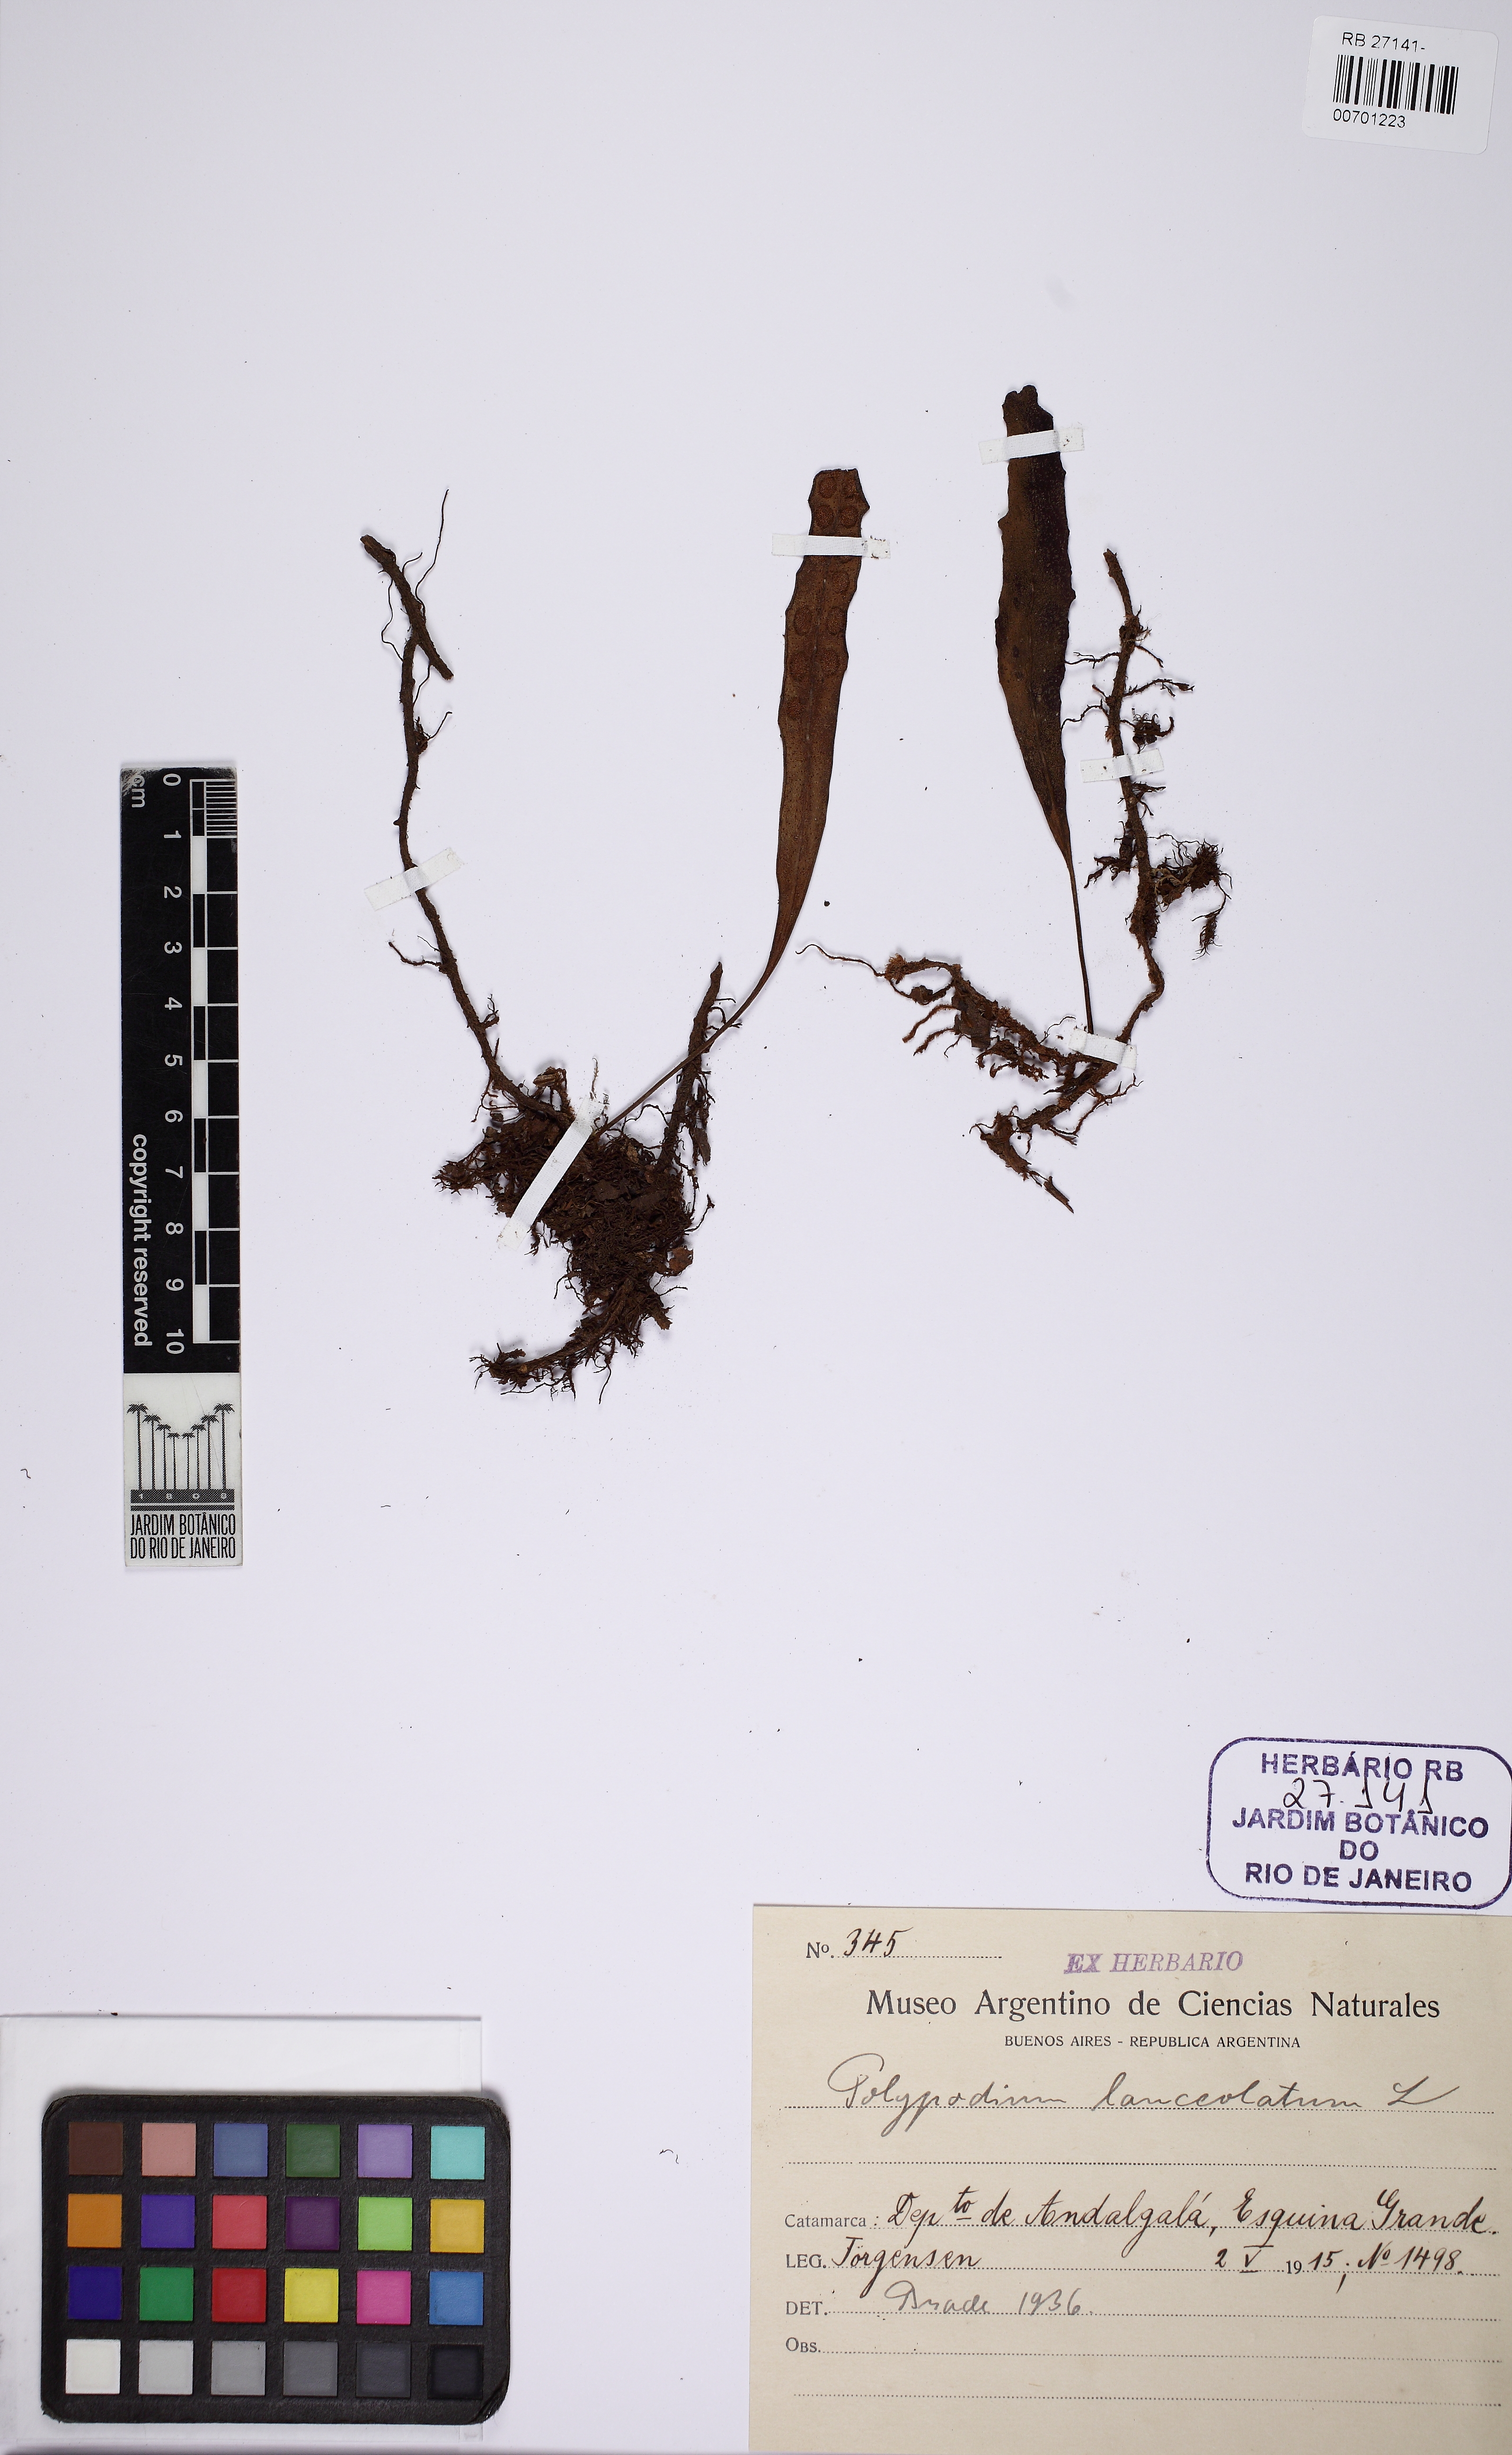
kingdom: Plantae
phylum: Tracheophyta
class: Polypodiopsida
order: Polypodiales
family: Polypodiaceae
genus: Pleopeltis
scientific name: Pleopeltis macrocarpa
